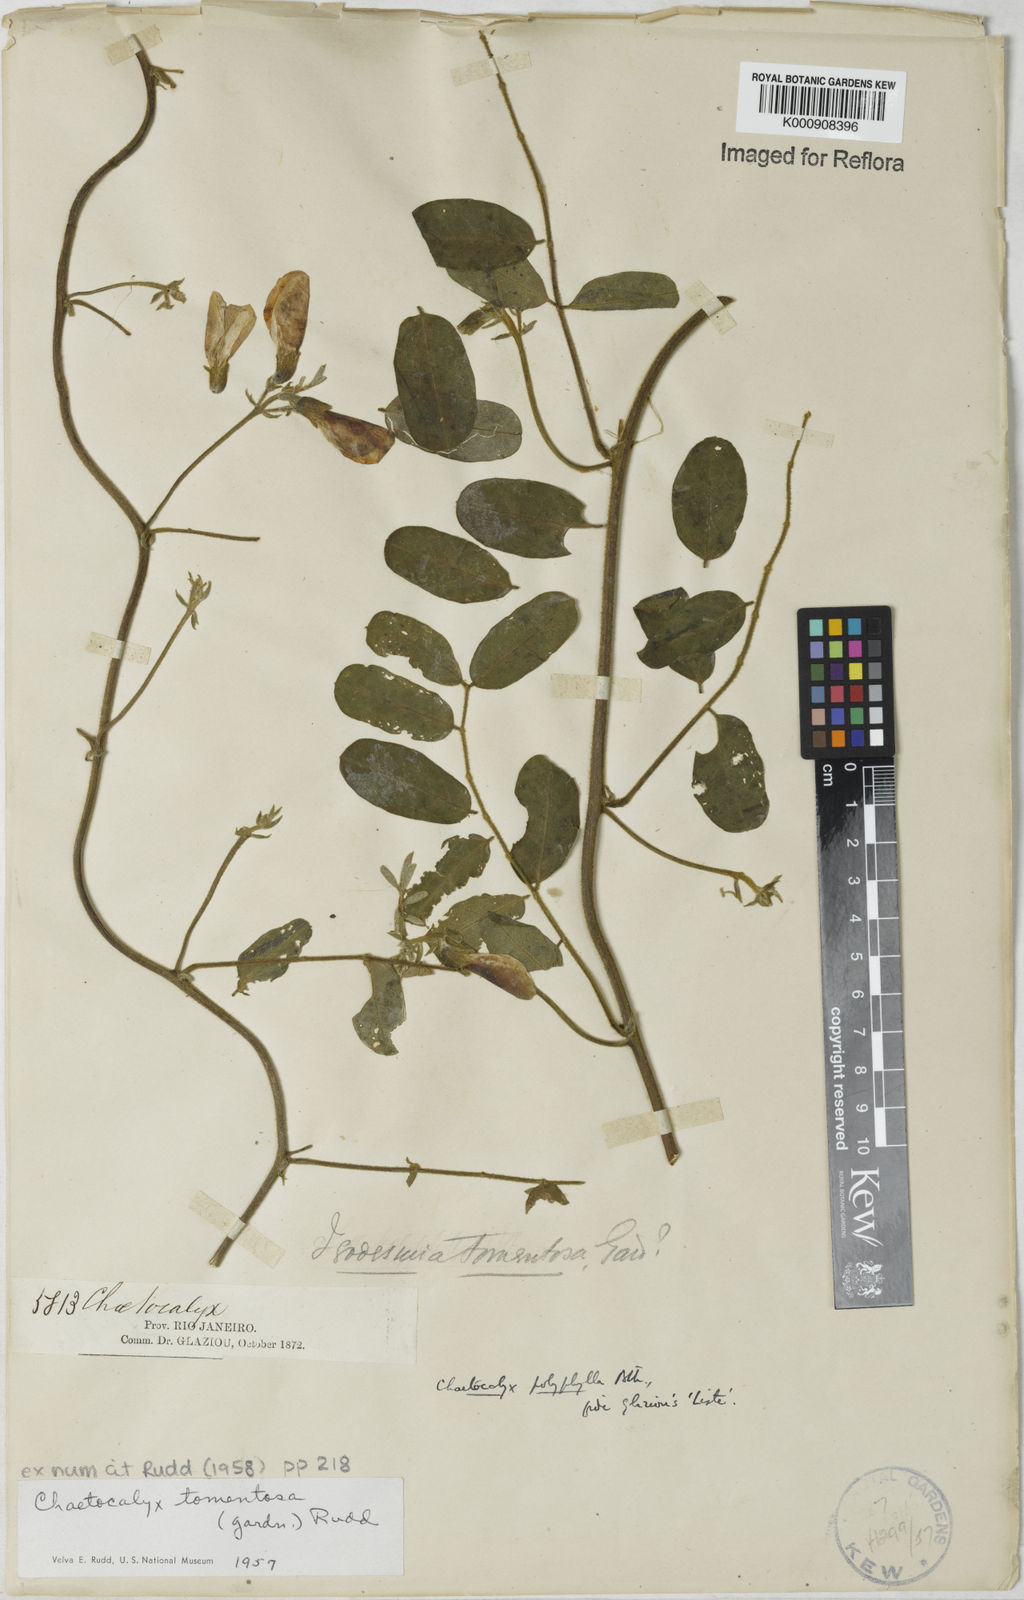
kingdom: Plantae
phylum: Tracheophyta
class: Magnoliopsida
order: Fabales
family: Fabaceae
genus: Nissolia
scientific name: Nissolia tomentosa
